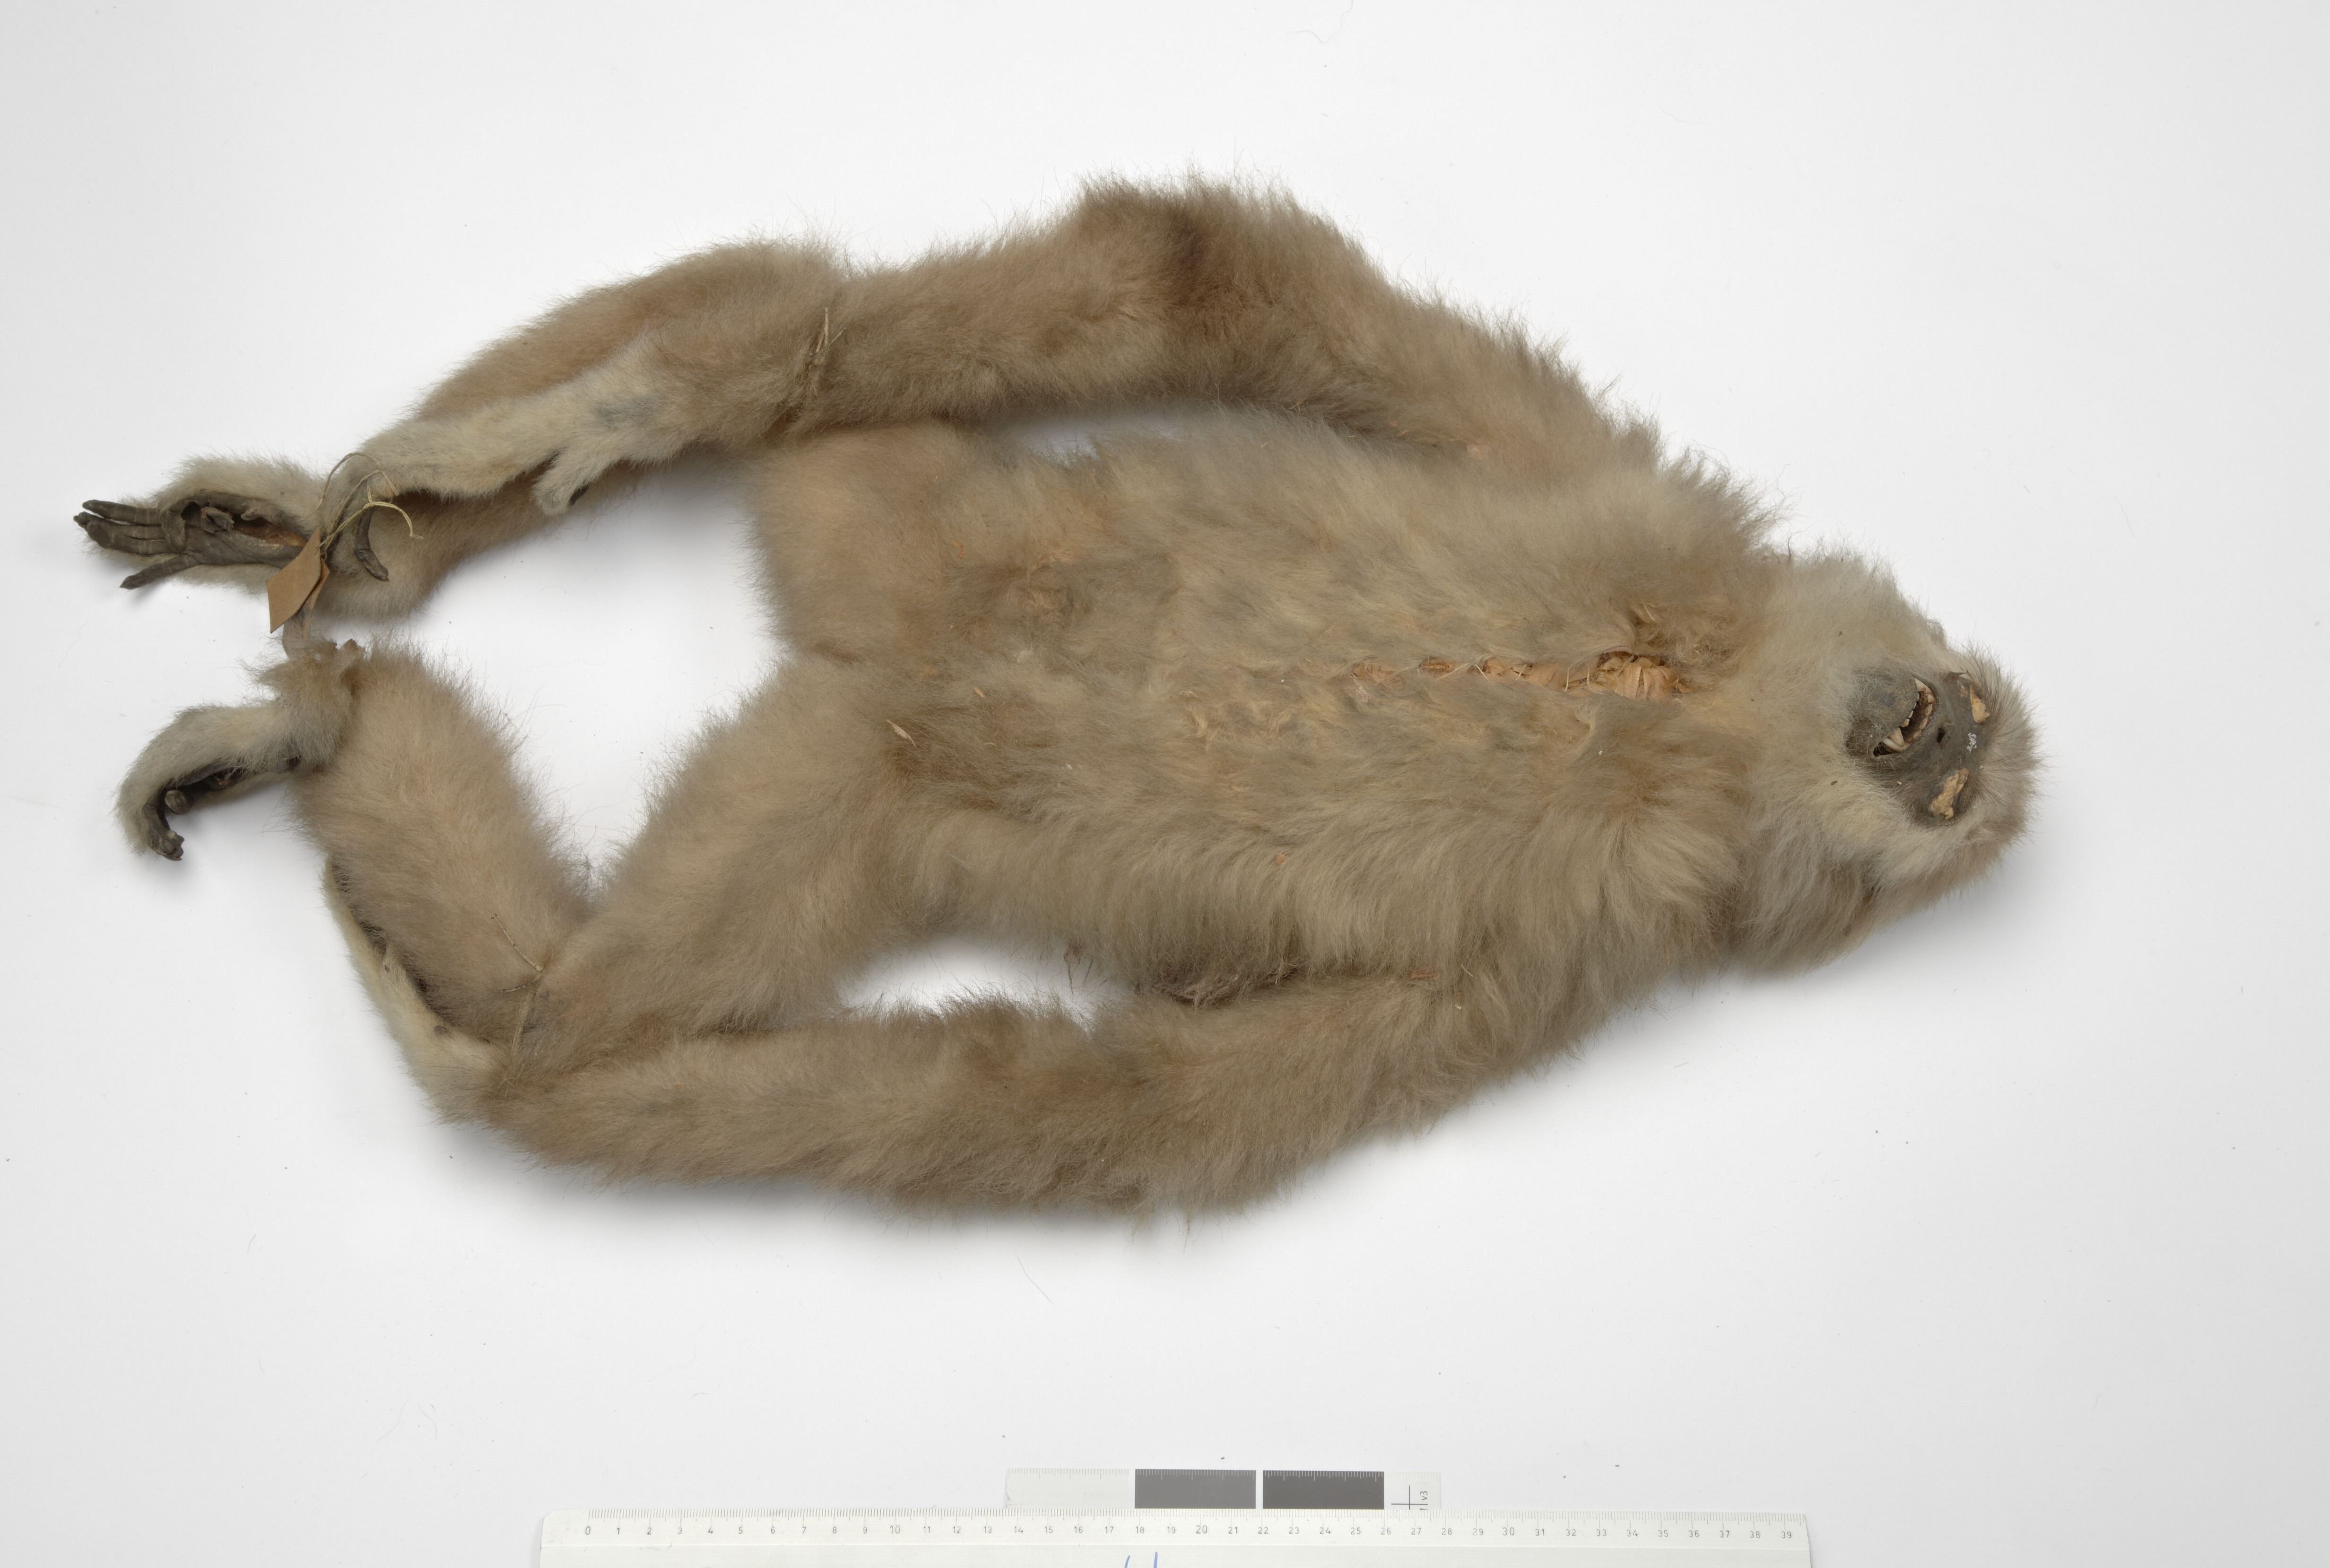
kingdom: Animalia
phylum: Chordata
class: Mammalia
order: Primates
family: Hylobatidae
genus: Hylobates
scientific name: Hylobates lar
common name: Lar gibbon
